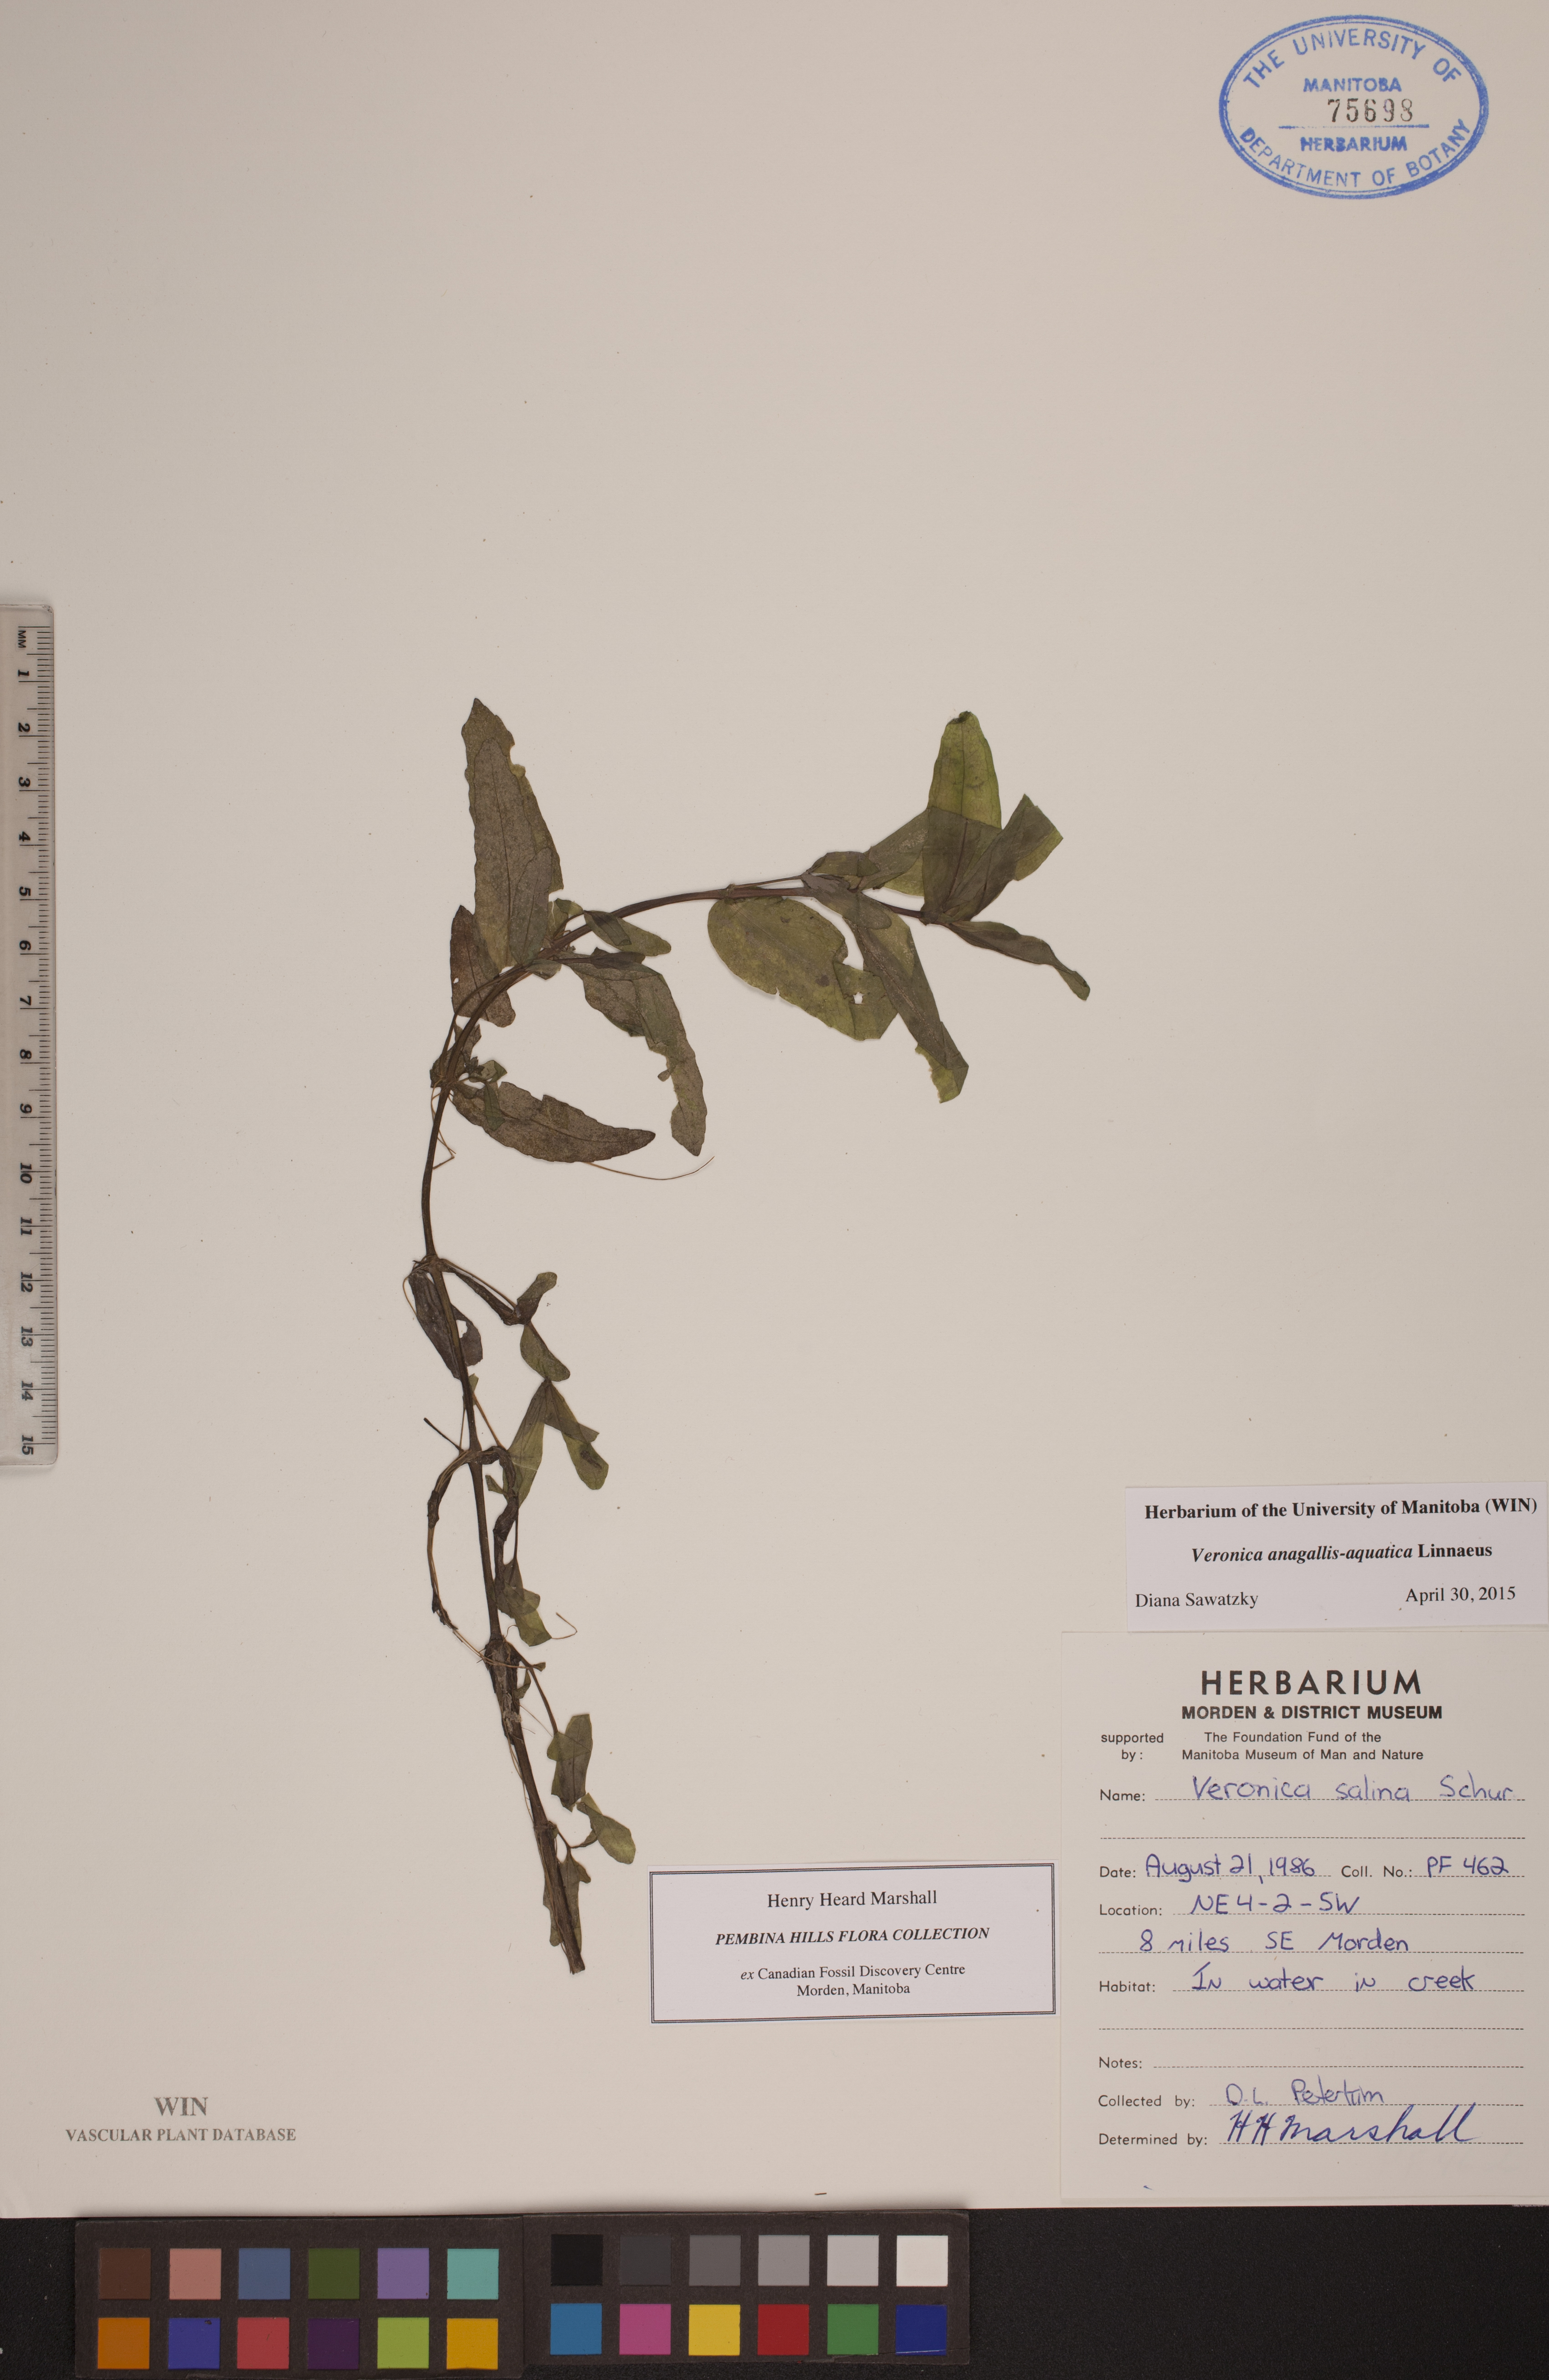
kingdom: Plantae
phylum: Tracheophyta
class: Magnoliopsida
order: Lamiales
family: Plantaginaceae
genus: Veronica
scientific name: Veronica anagallis-aquatica
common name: Water speedwell
